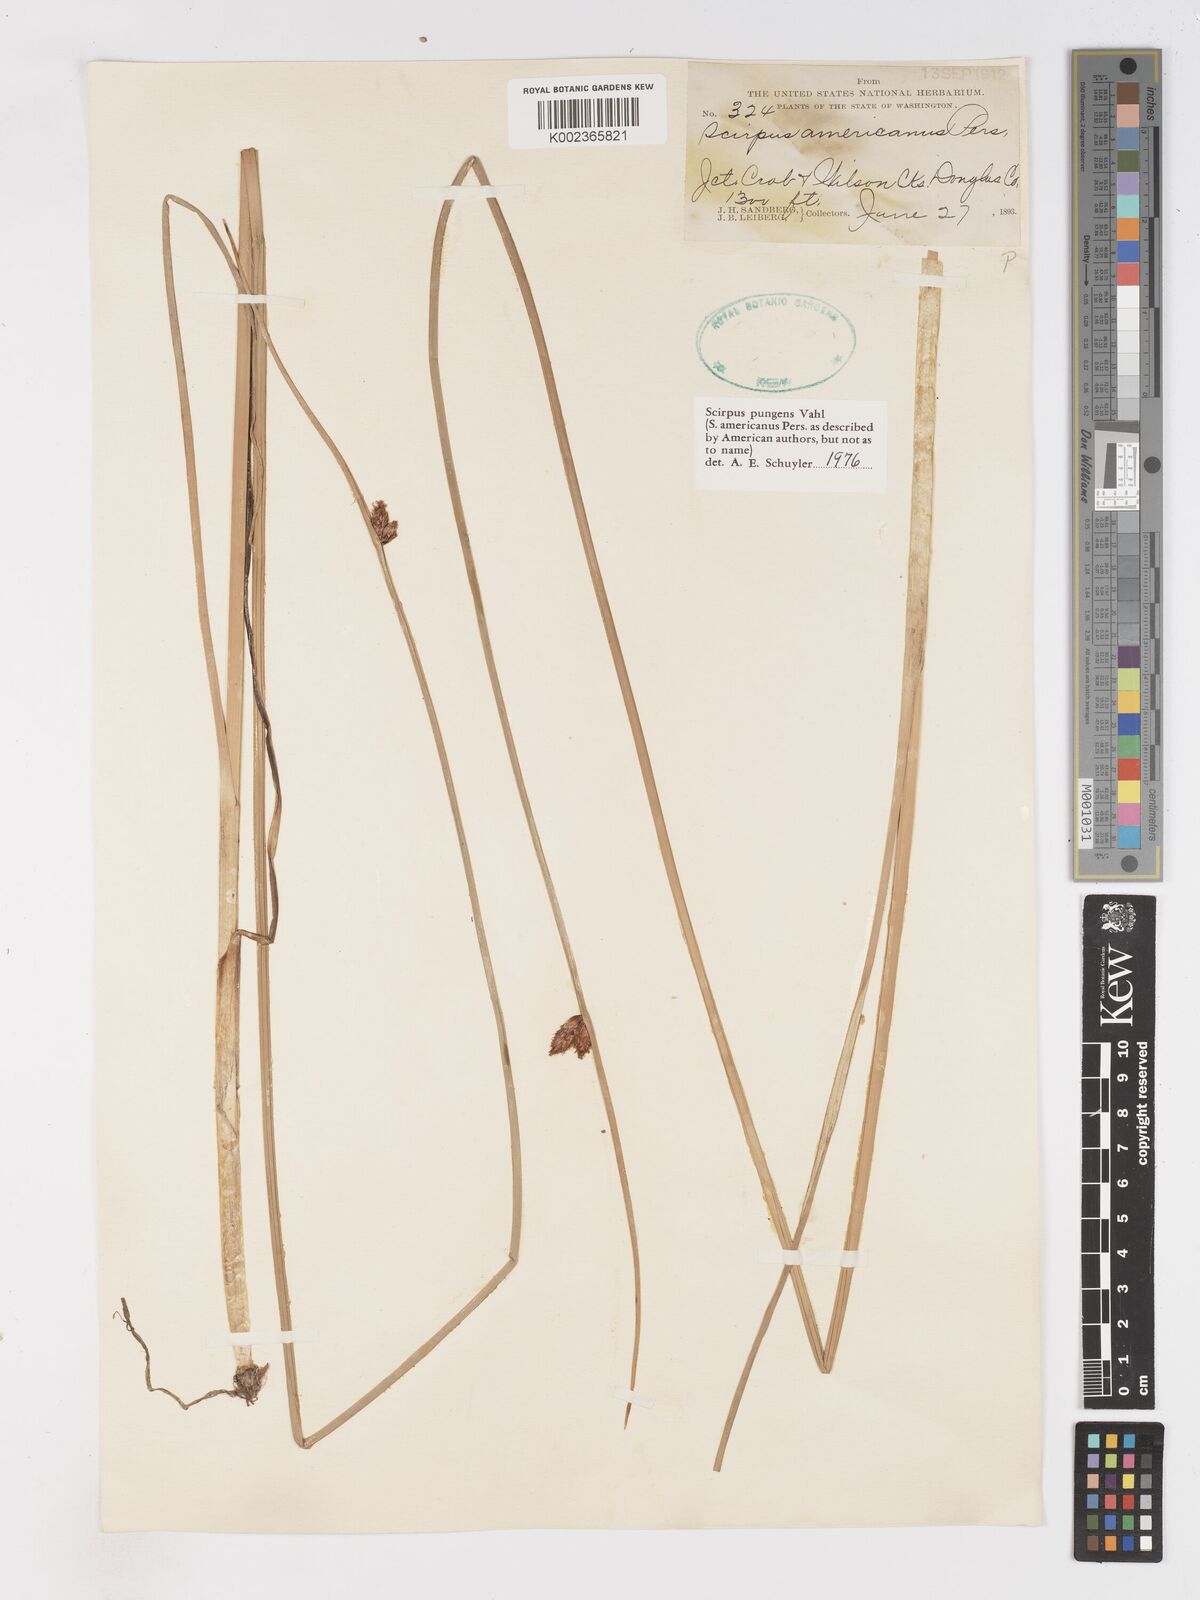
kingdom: Plantae
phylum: Tracheophyta
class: Liliopsida
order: Poales
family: Cyperaceae
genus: Schoenoplectus
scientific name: Schoenoplectus pungens
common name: Sharp club-rush
